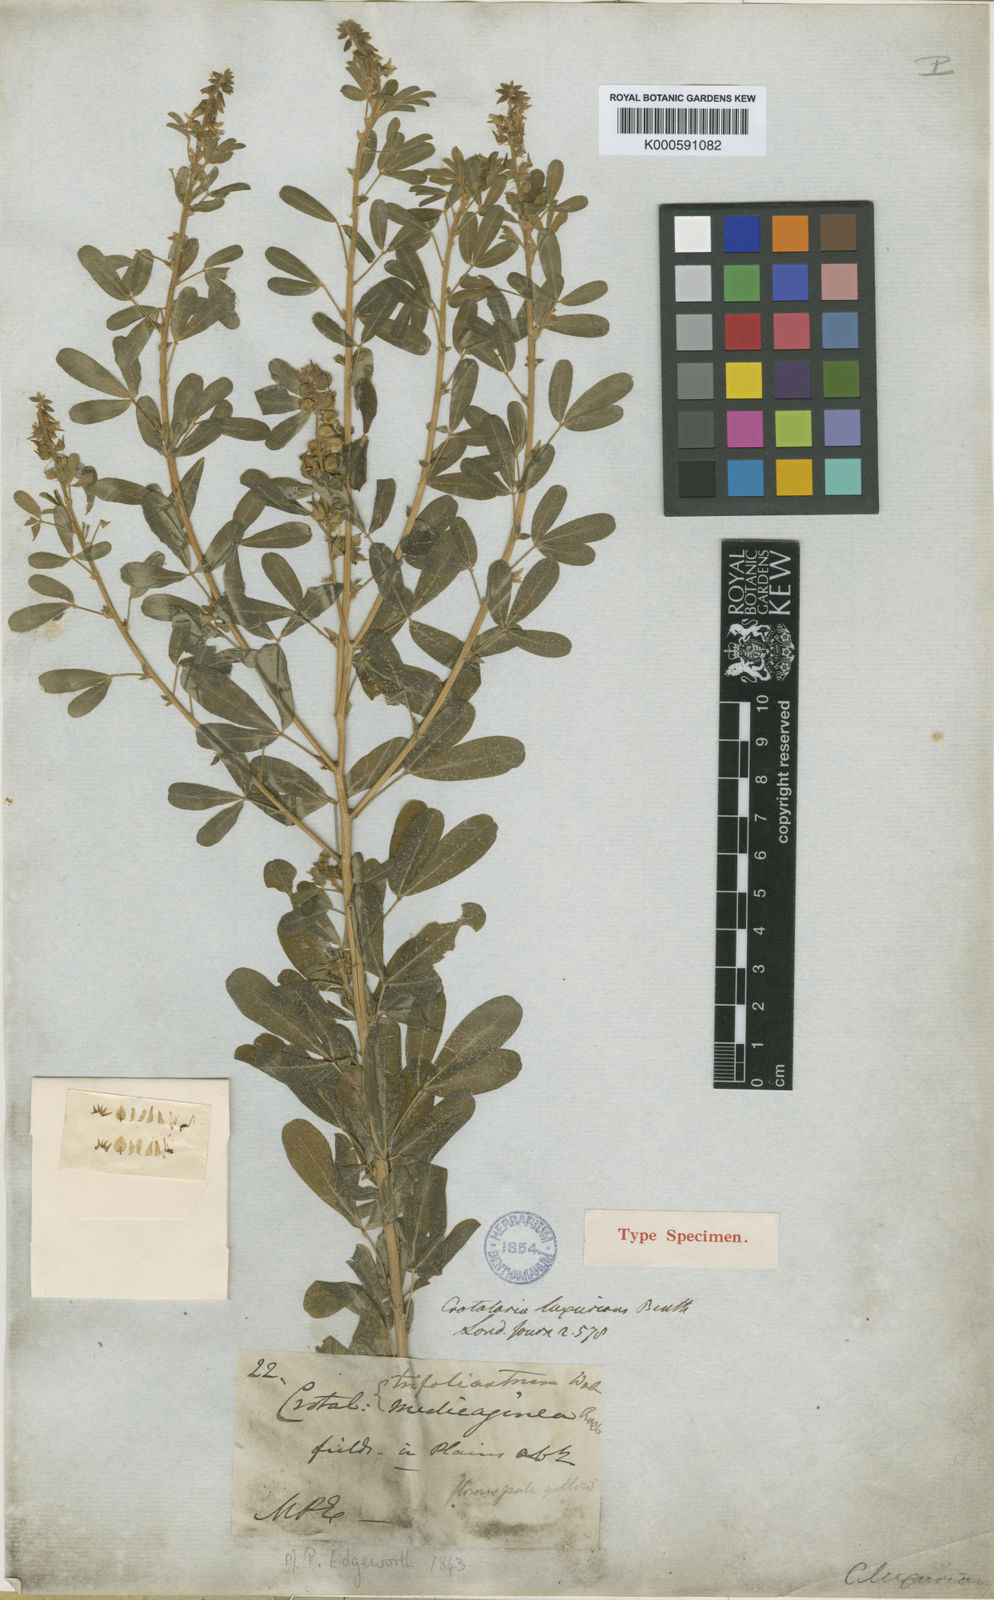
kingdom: Plantae
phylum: Tracheophyta
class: Magnoliopsida
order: Fabales
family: Fabaceae
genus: Crotalaria
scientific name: Crotalaria medicaginea
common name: Trefoil rattlepod
